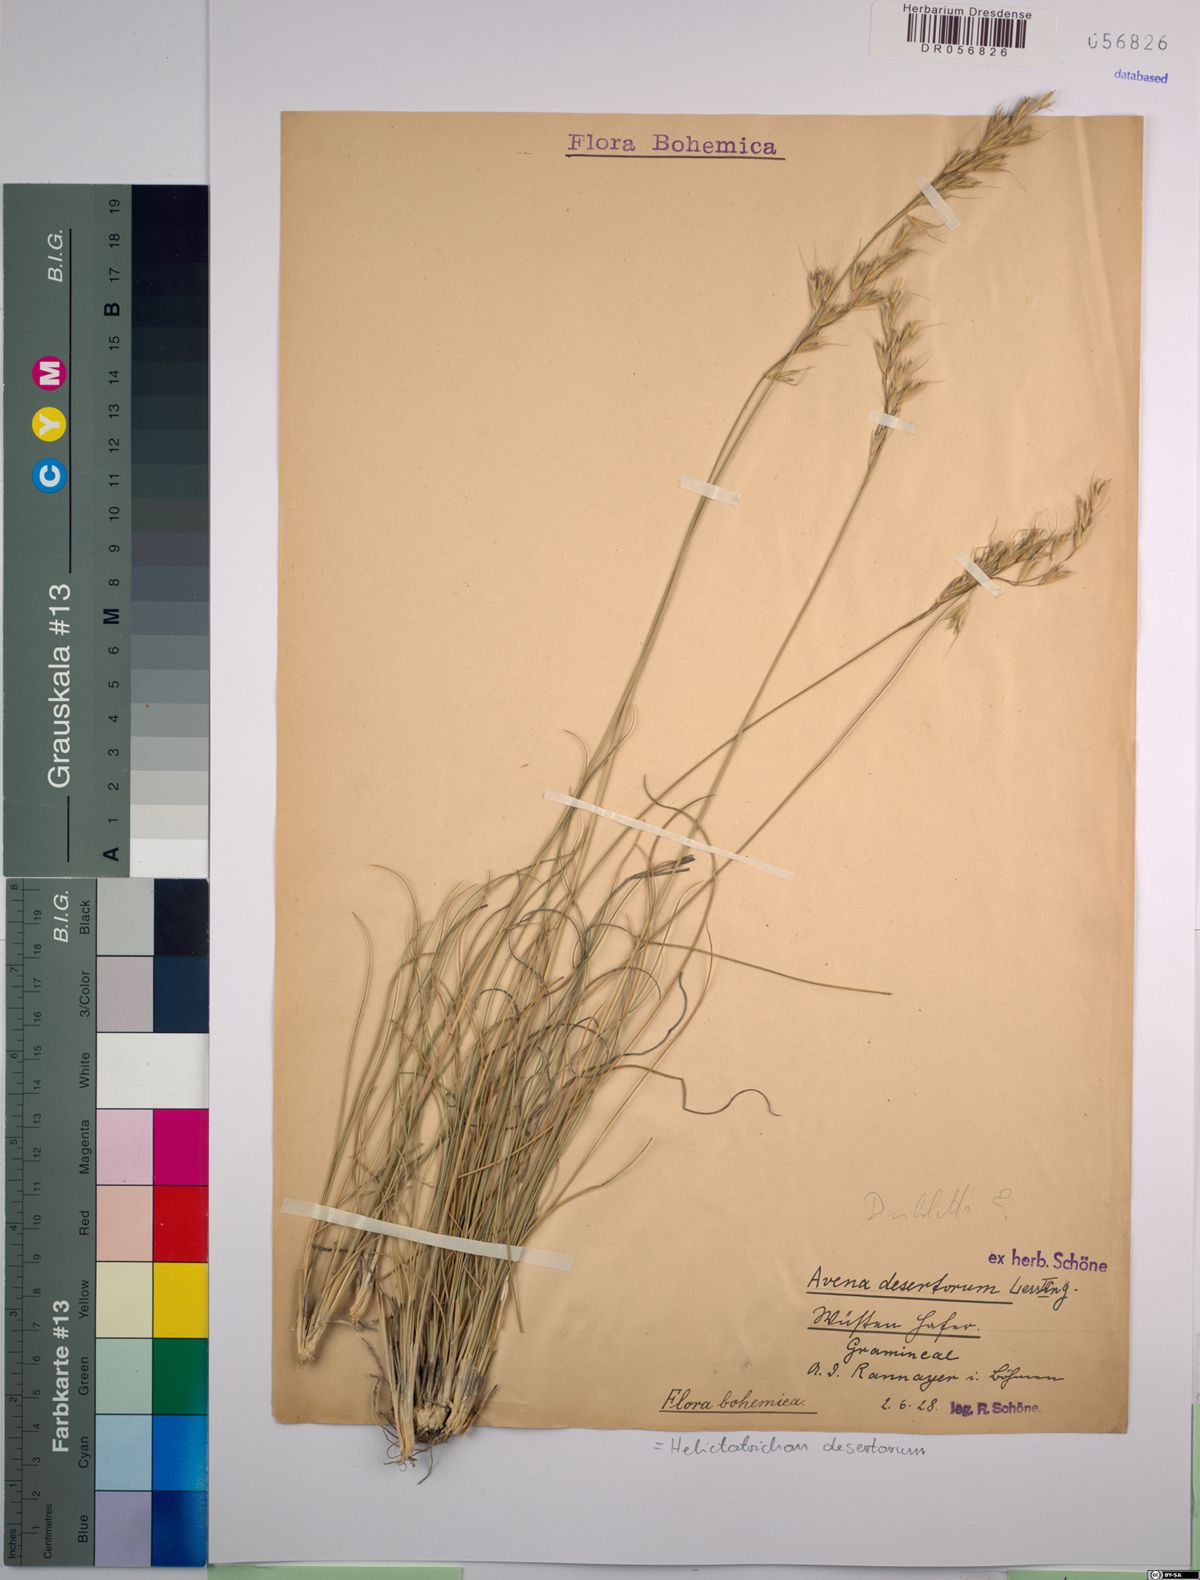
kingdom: Plantae
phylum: Tracheophyta
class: Liliopsida
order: Poales
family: Poaceae
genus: Helictotrichon
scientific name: Helictotrichon desertorum
